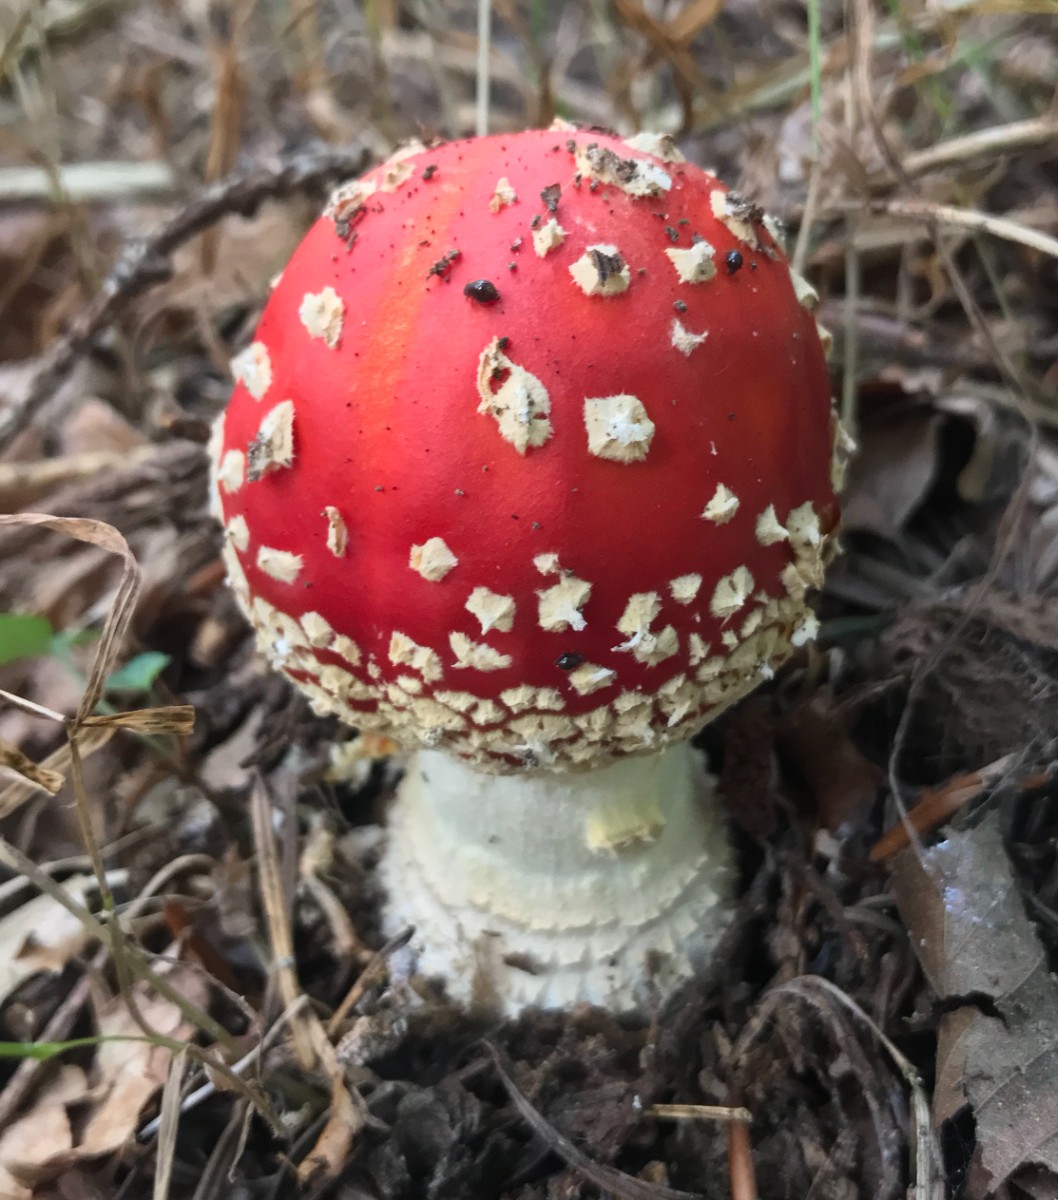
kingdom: Fungi
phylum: Basidiomycota
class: Agaricomycetes
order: Agaricales
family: Amanitaceae
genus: Amanita
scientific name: Amanita muscaria
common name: rød fluesvamp
